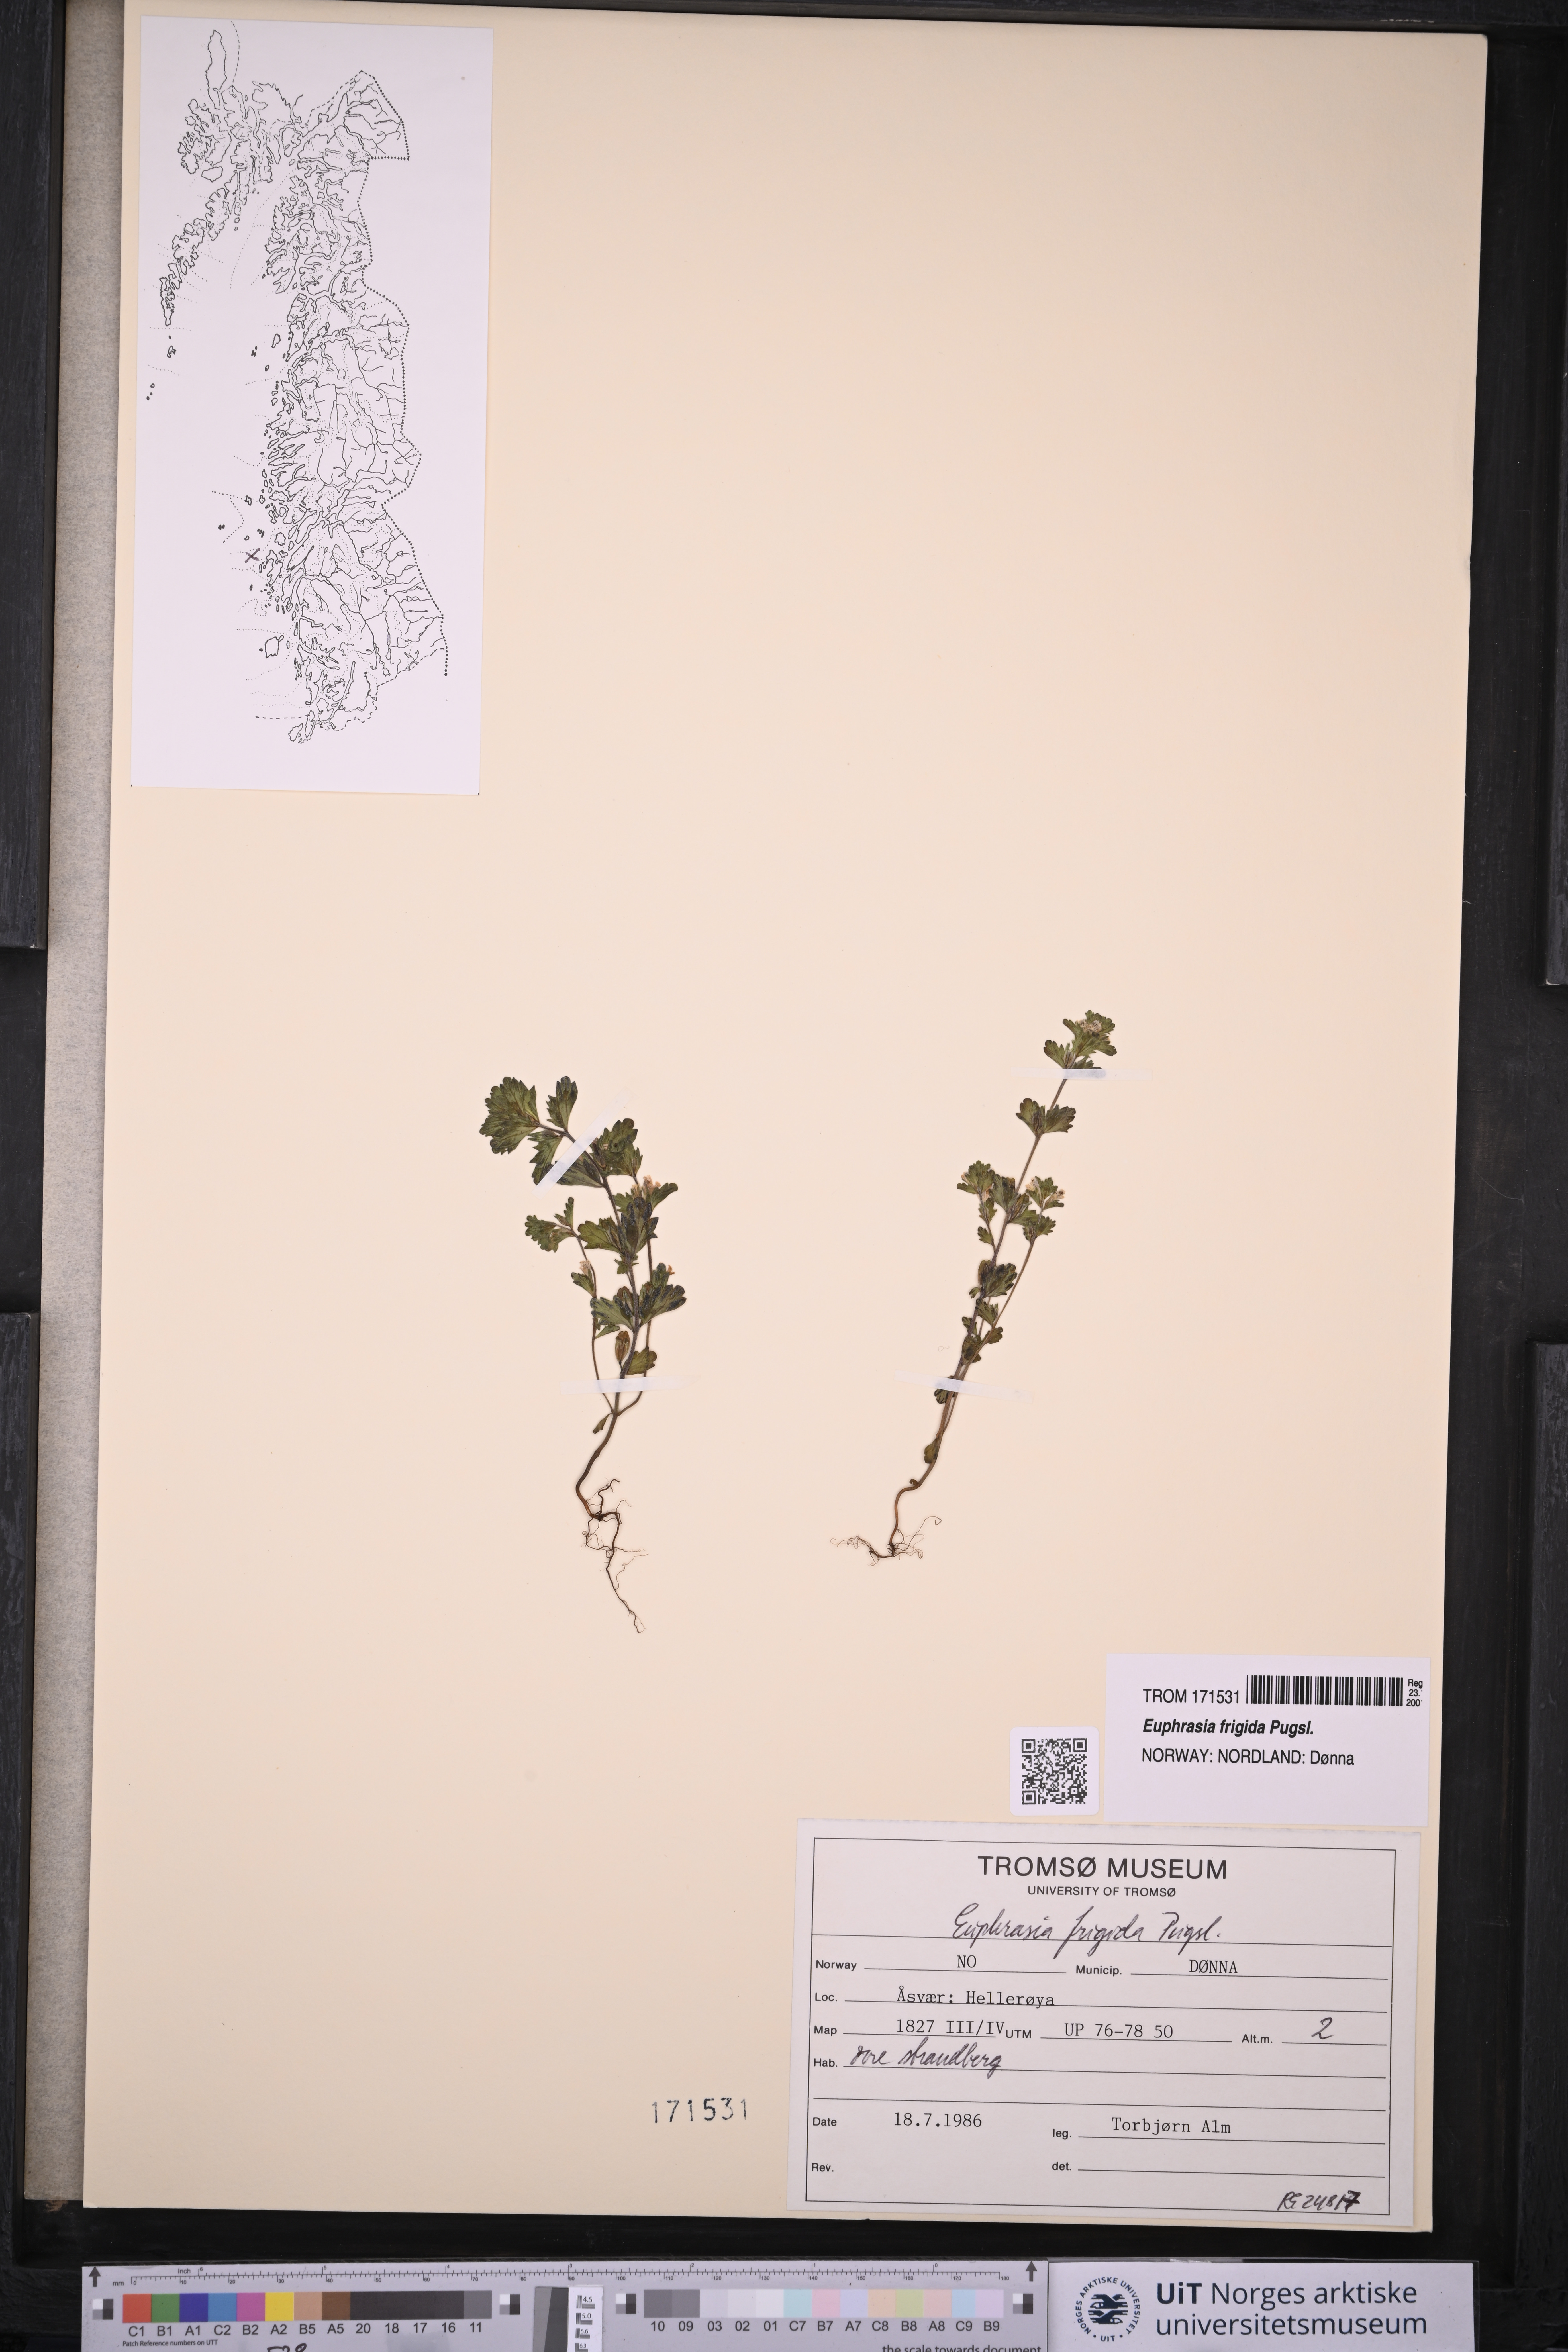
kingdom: Plantae
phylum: Tracheophyta
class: Magnoliopsida
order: Lamiales
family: Orobanchaceae
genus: Euphrasia
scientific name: Euphrasia frigida
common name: An eyebright
